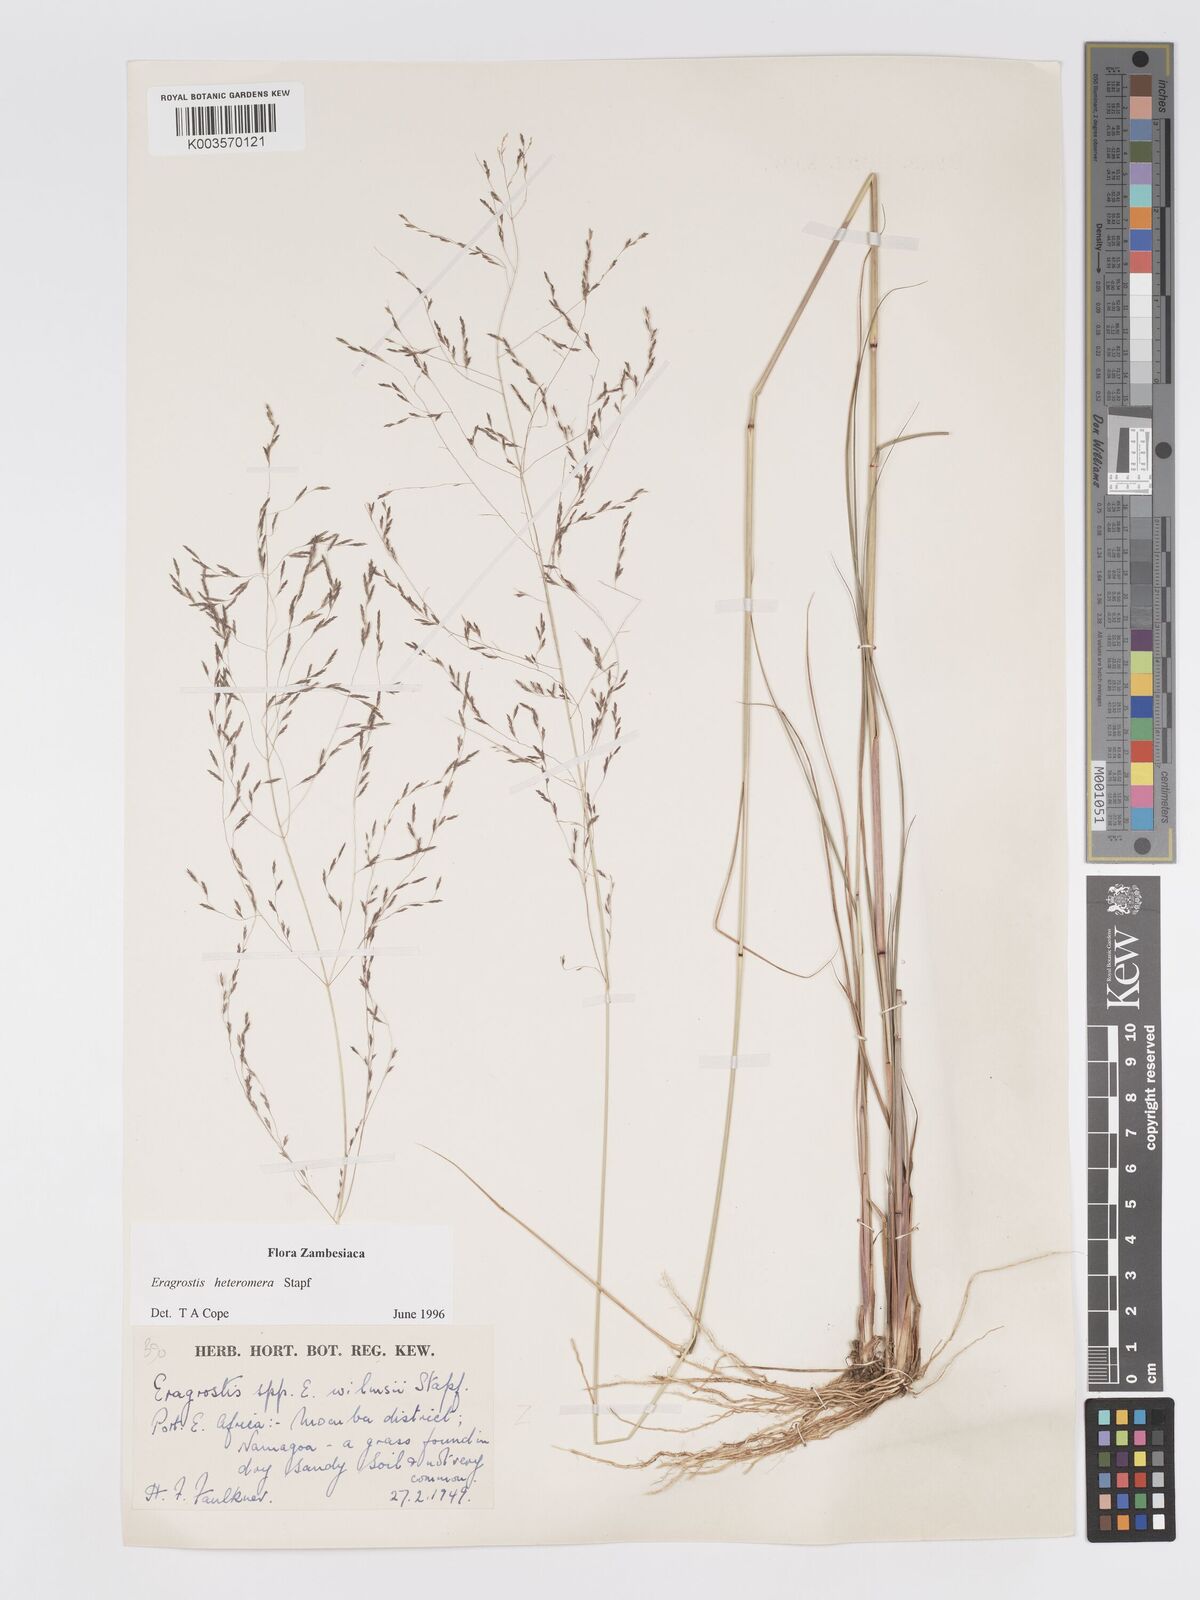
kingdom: Plantae
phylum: Tracheophyta
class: Liliopsida
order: Poales
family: Poaceae
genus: Eragrostis
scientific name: Eragrostis heteromera
